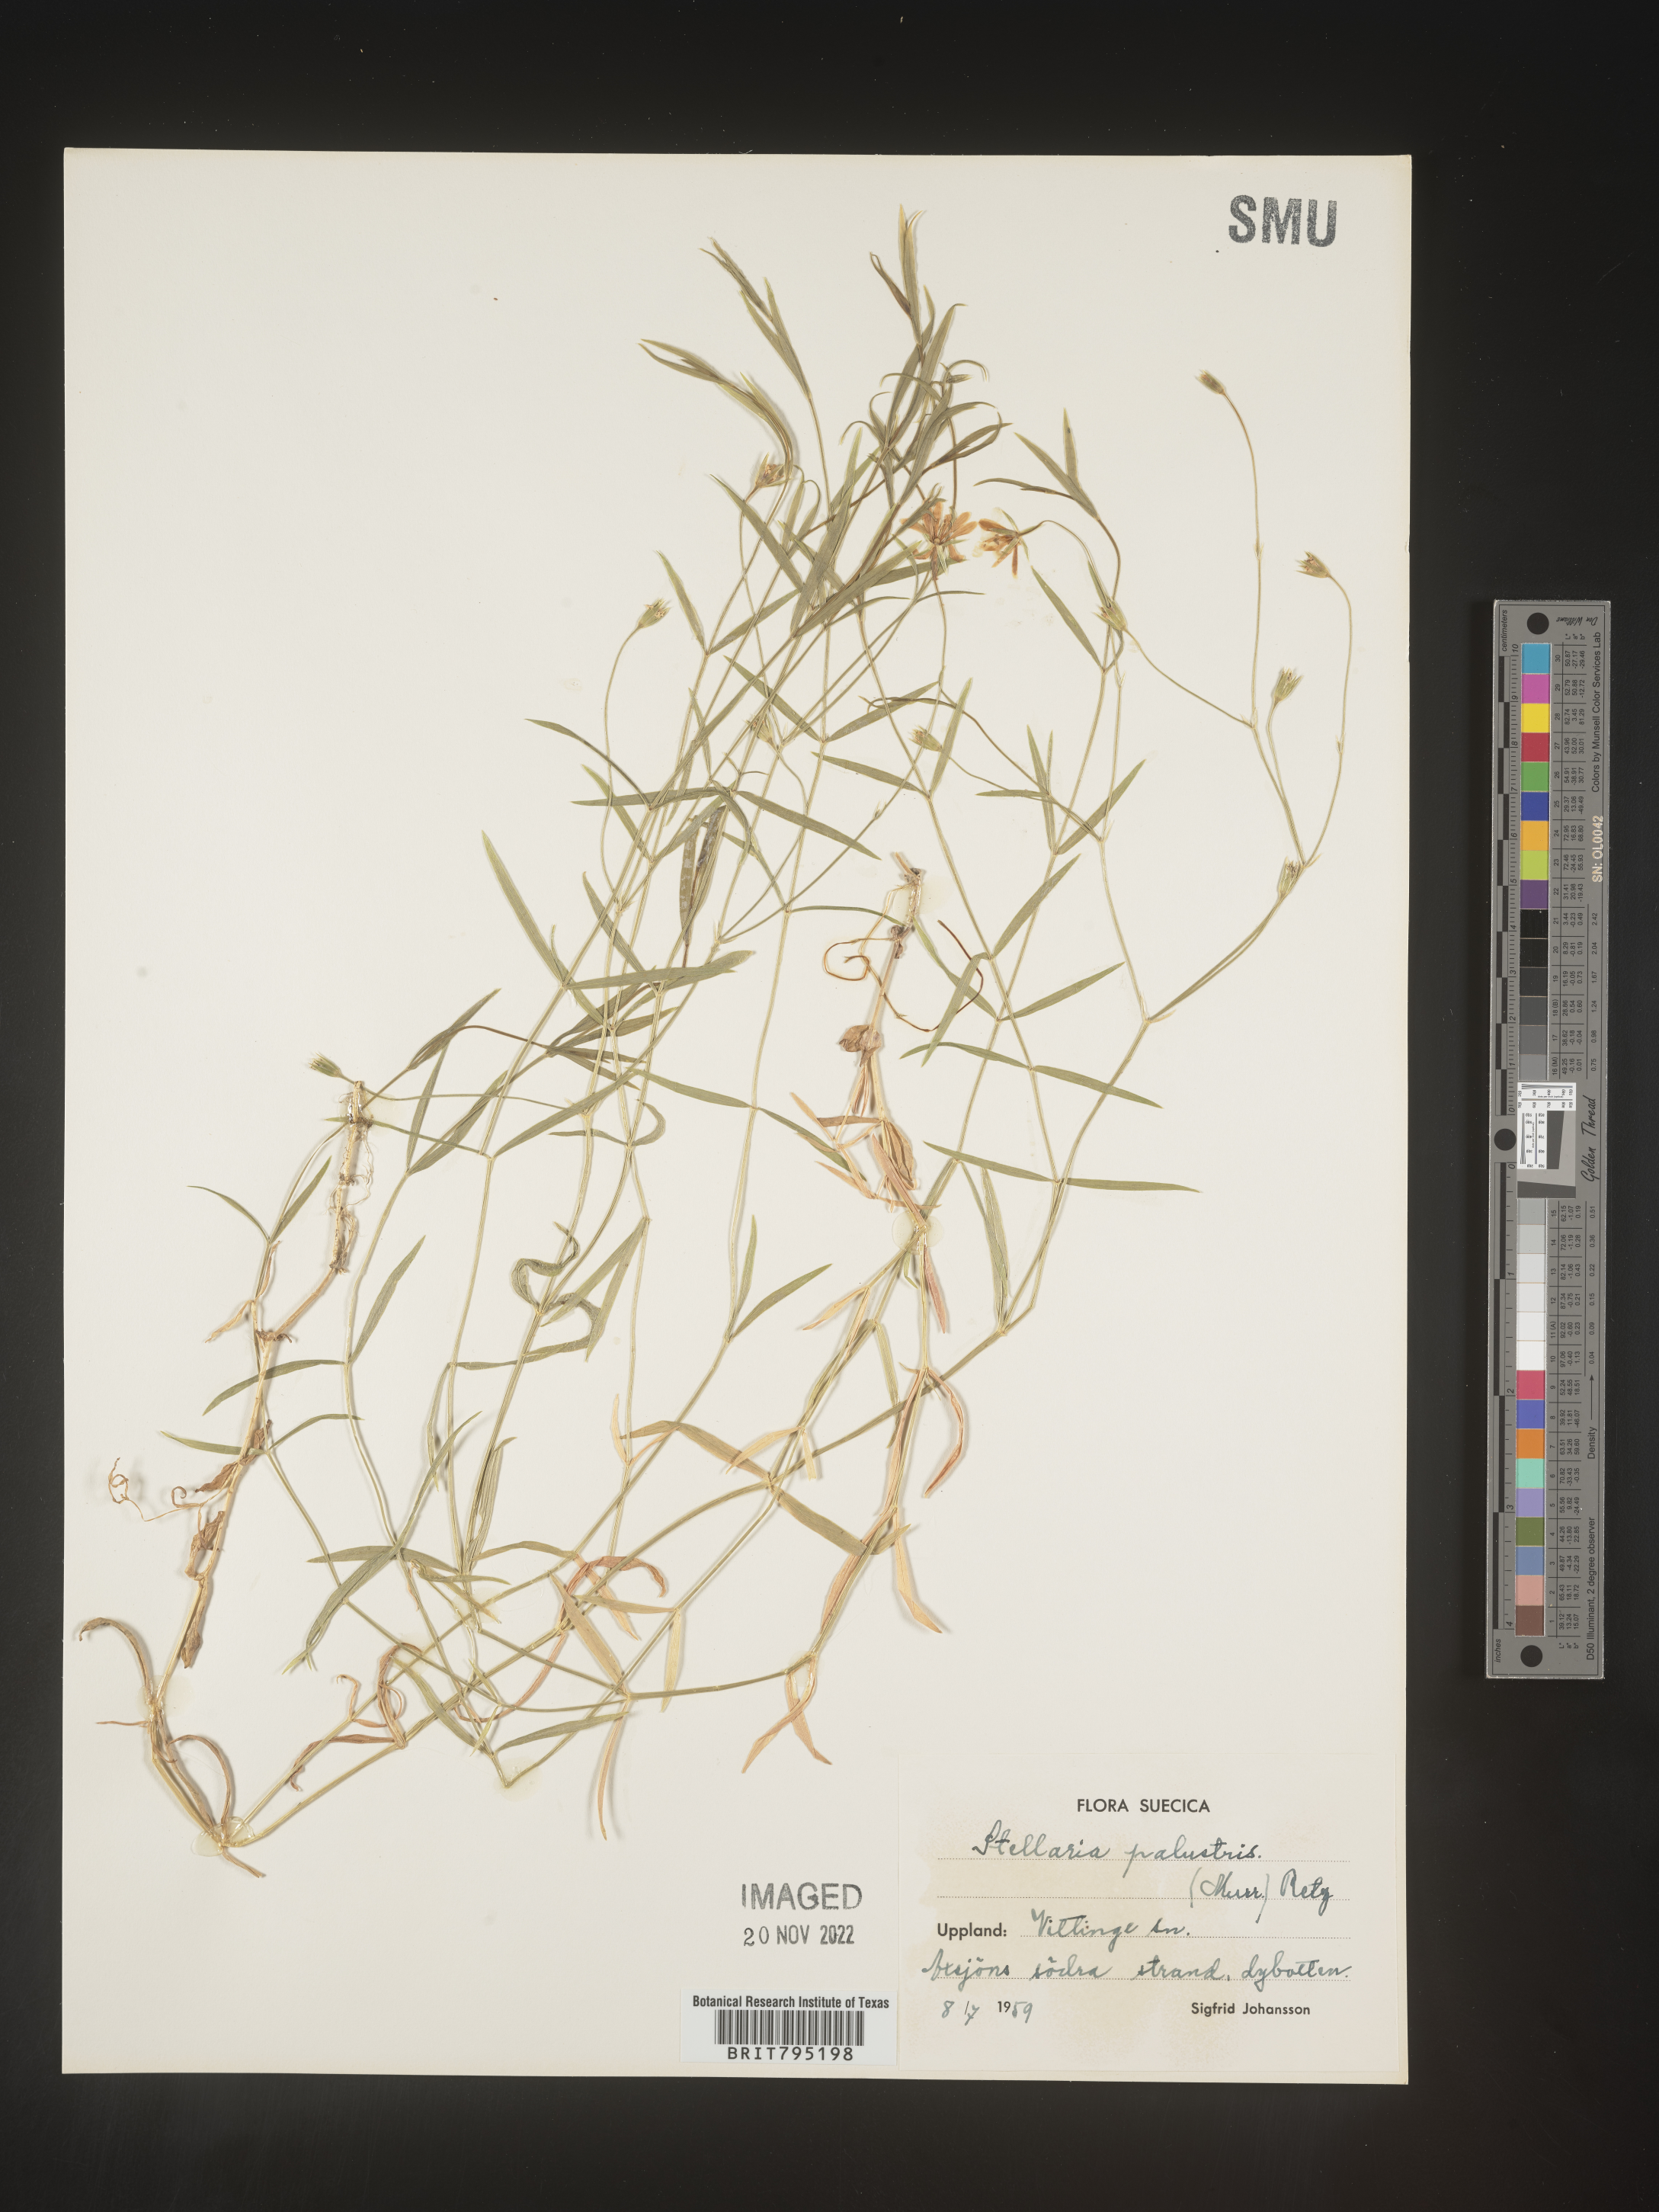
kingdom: Plantae
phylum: Tracheophyta
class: Magnoliopsida
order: Caryophyllales
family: Caryophyllaceae
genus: Stellaria
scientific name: Stellaria
